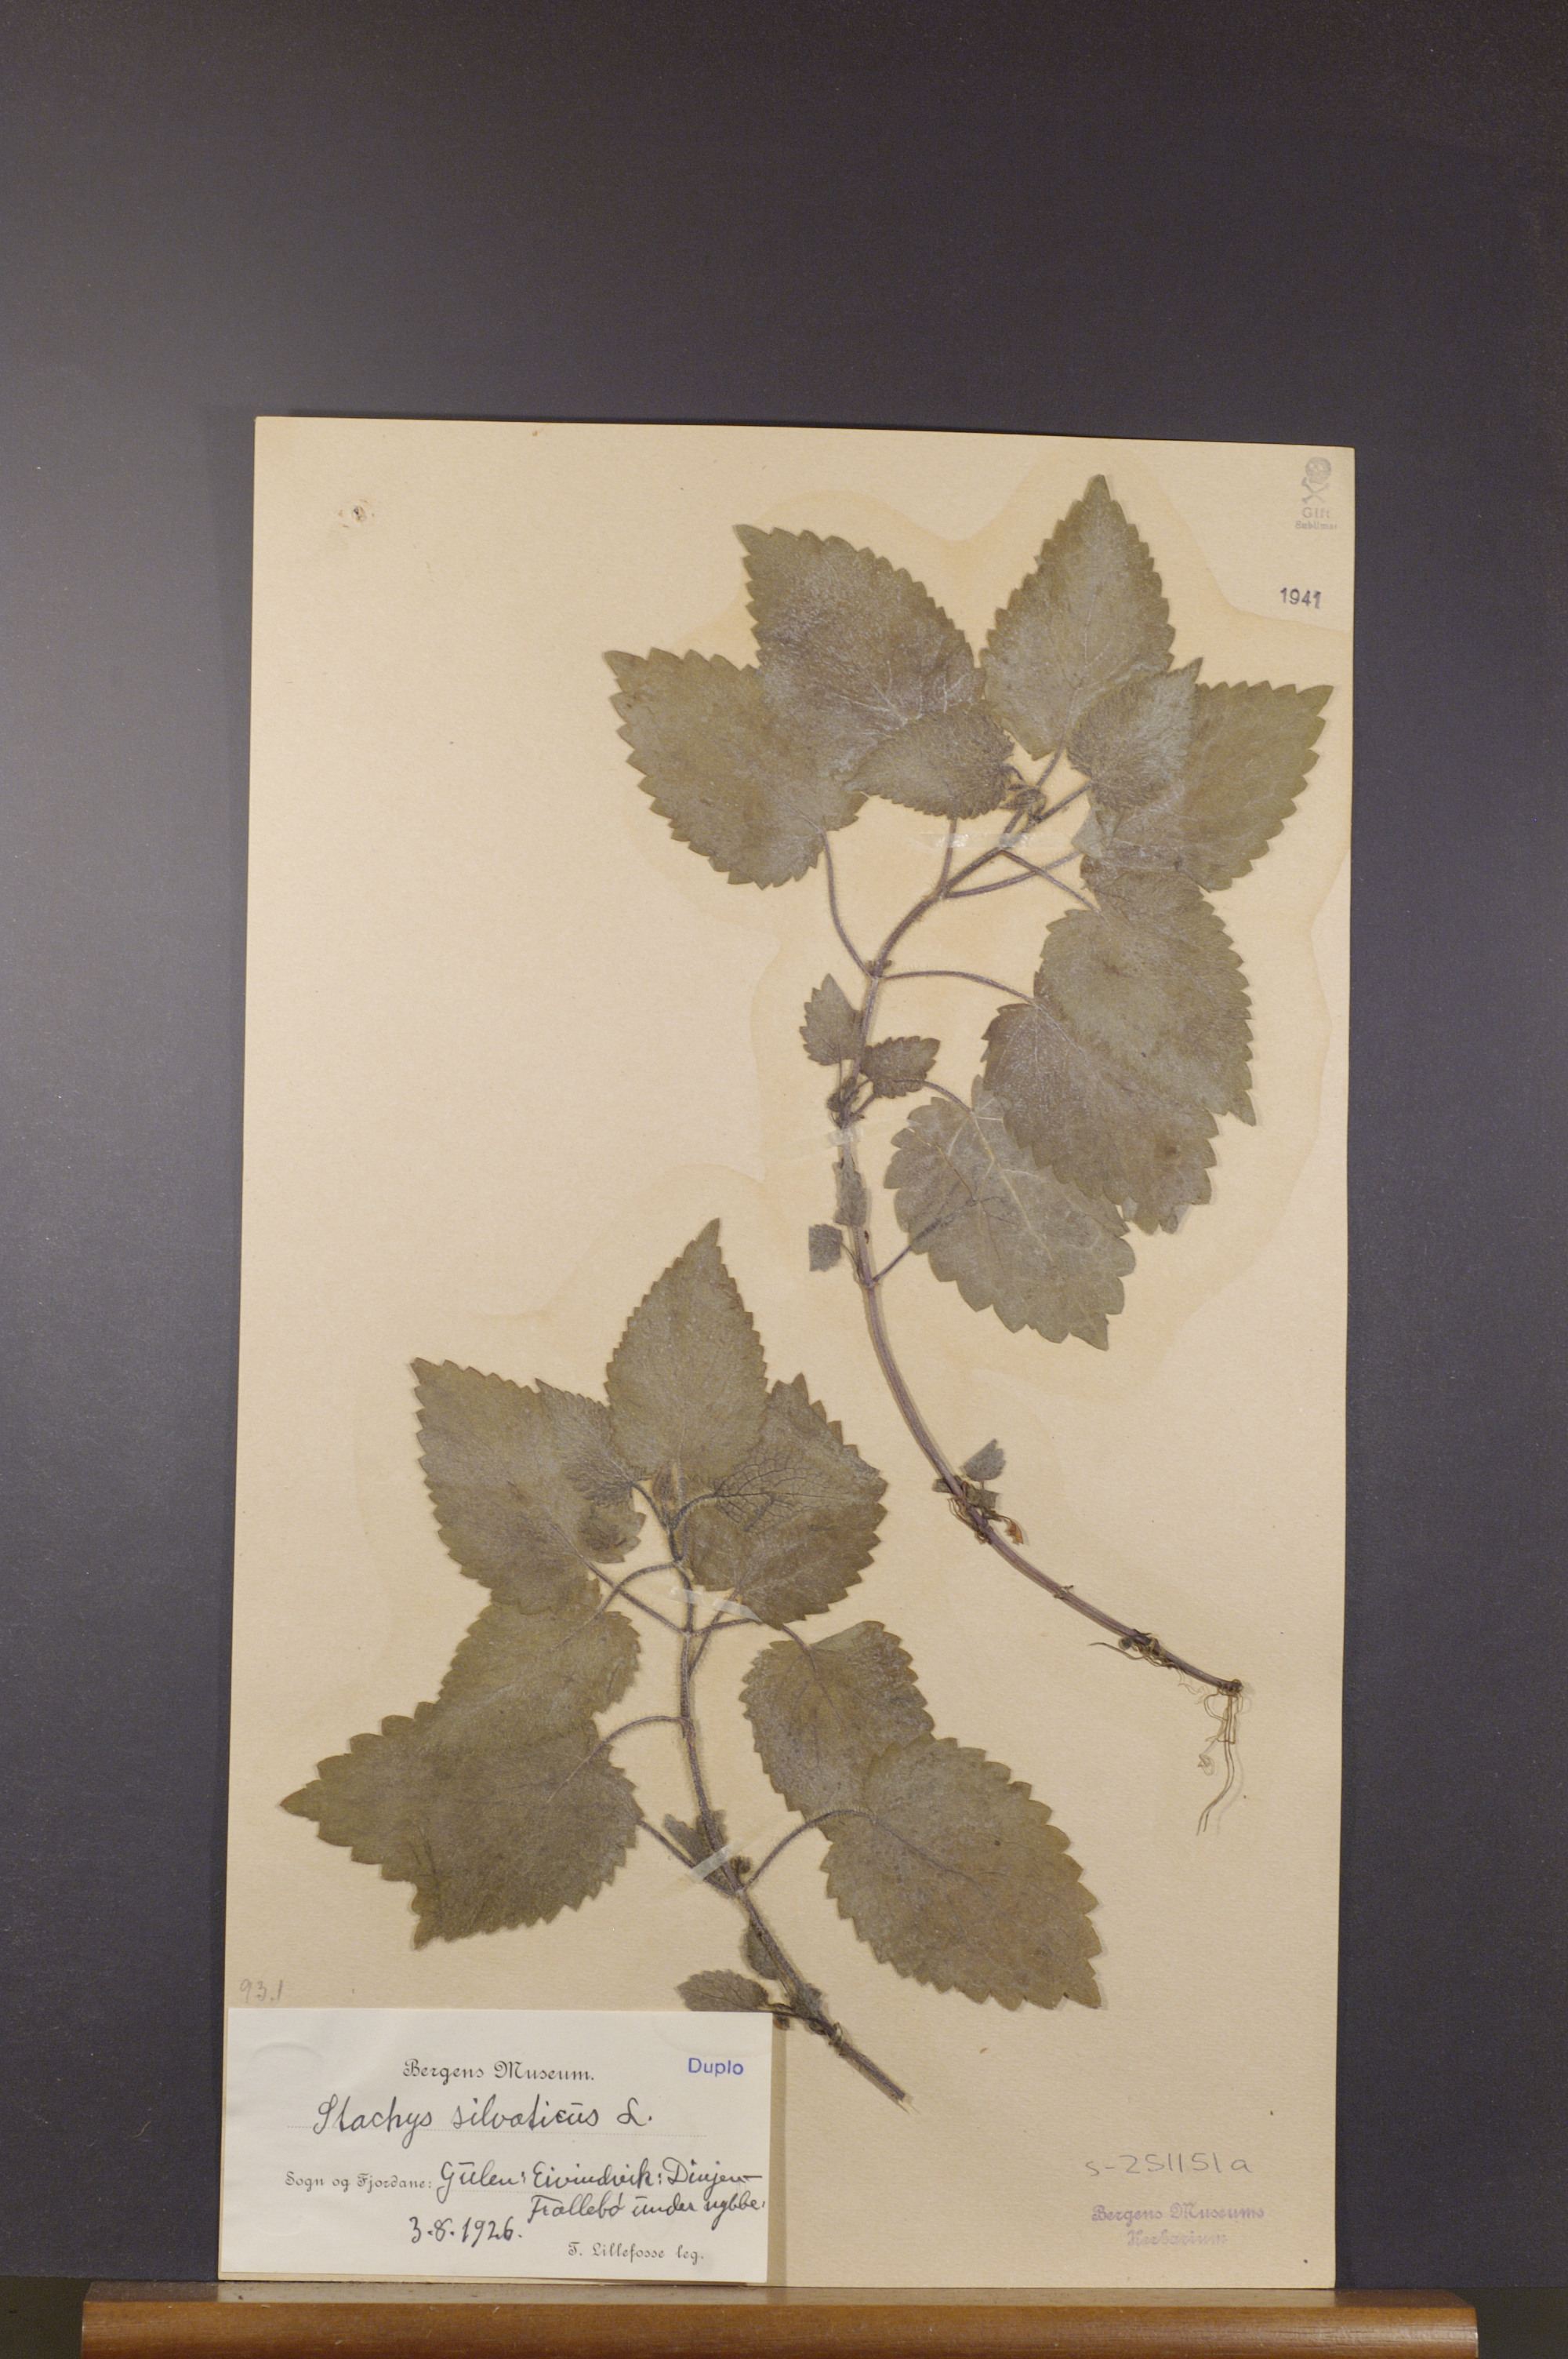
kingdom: Plantae
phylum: Tracheophyta
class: Magnoliopsida
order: Lamiales
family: Lamiaceae
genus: Stachys
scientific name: Stachys sylvatica
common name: Hedge woundwort
